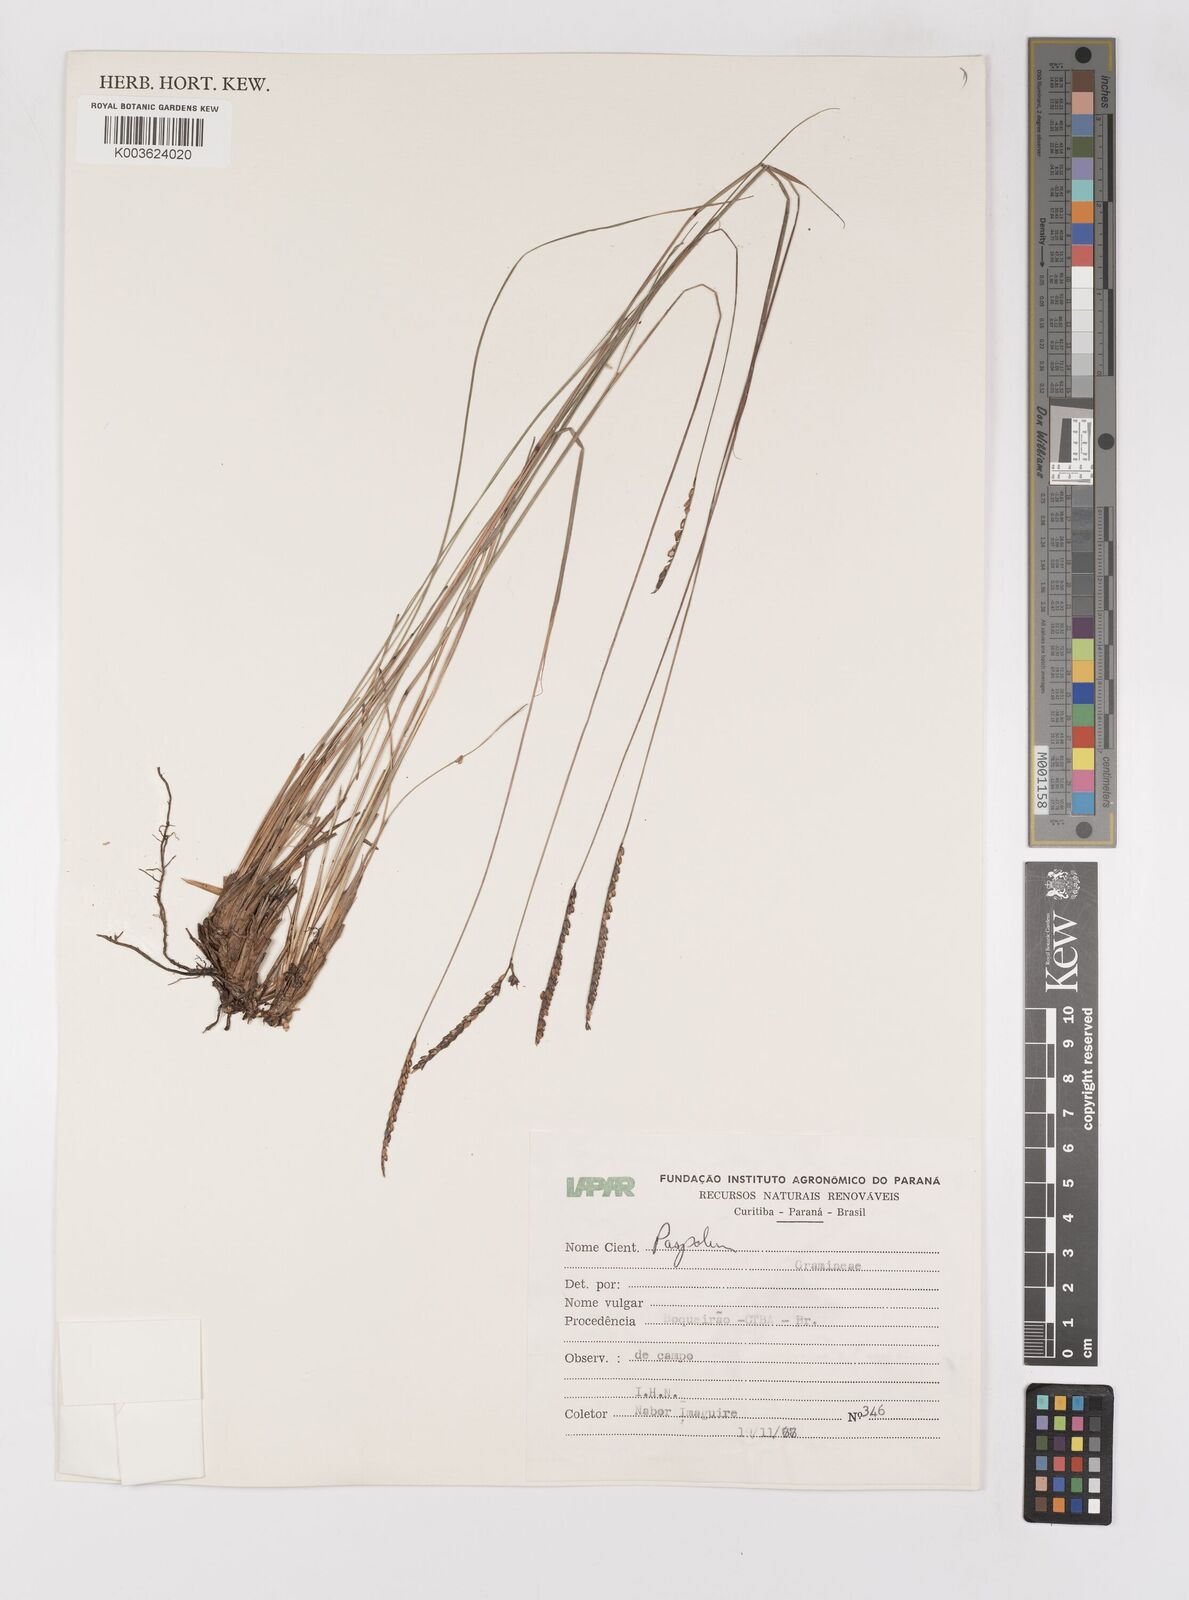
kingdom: Plantae
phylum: Tracheophyta
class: Liliopsida
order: Poales
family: Poaceae
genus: Paspalum
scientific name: Paspalum flaccidum
